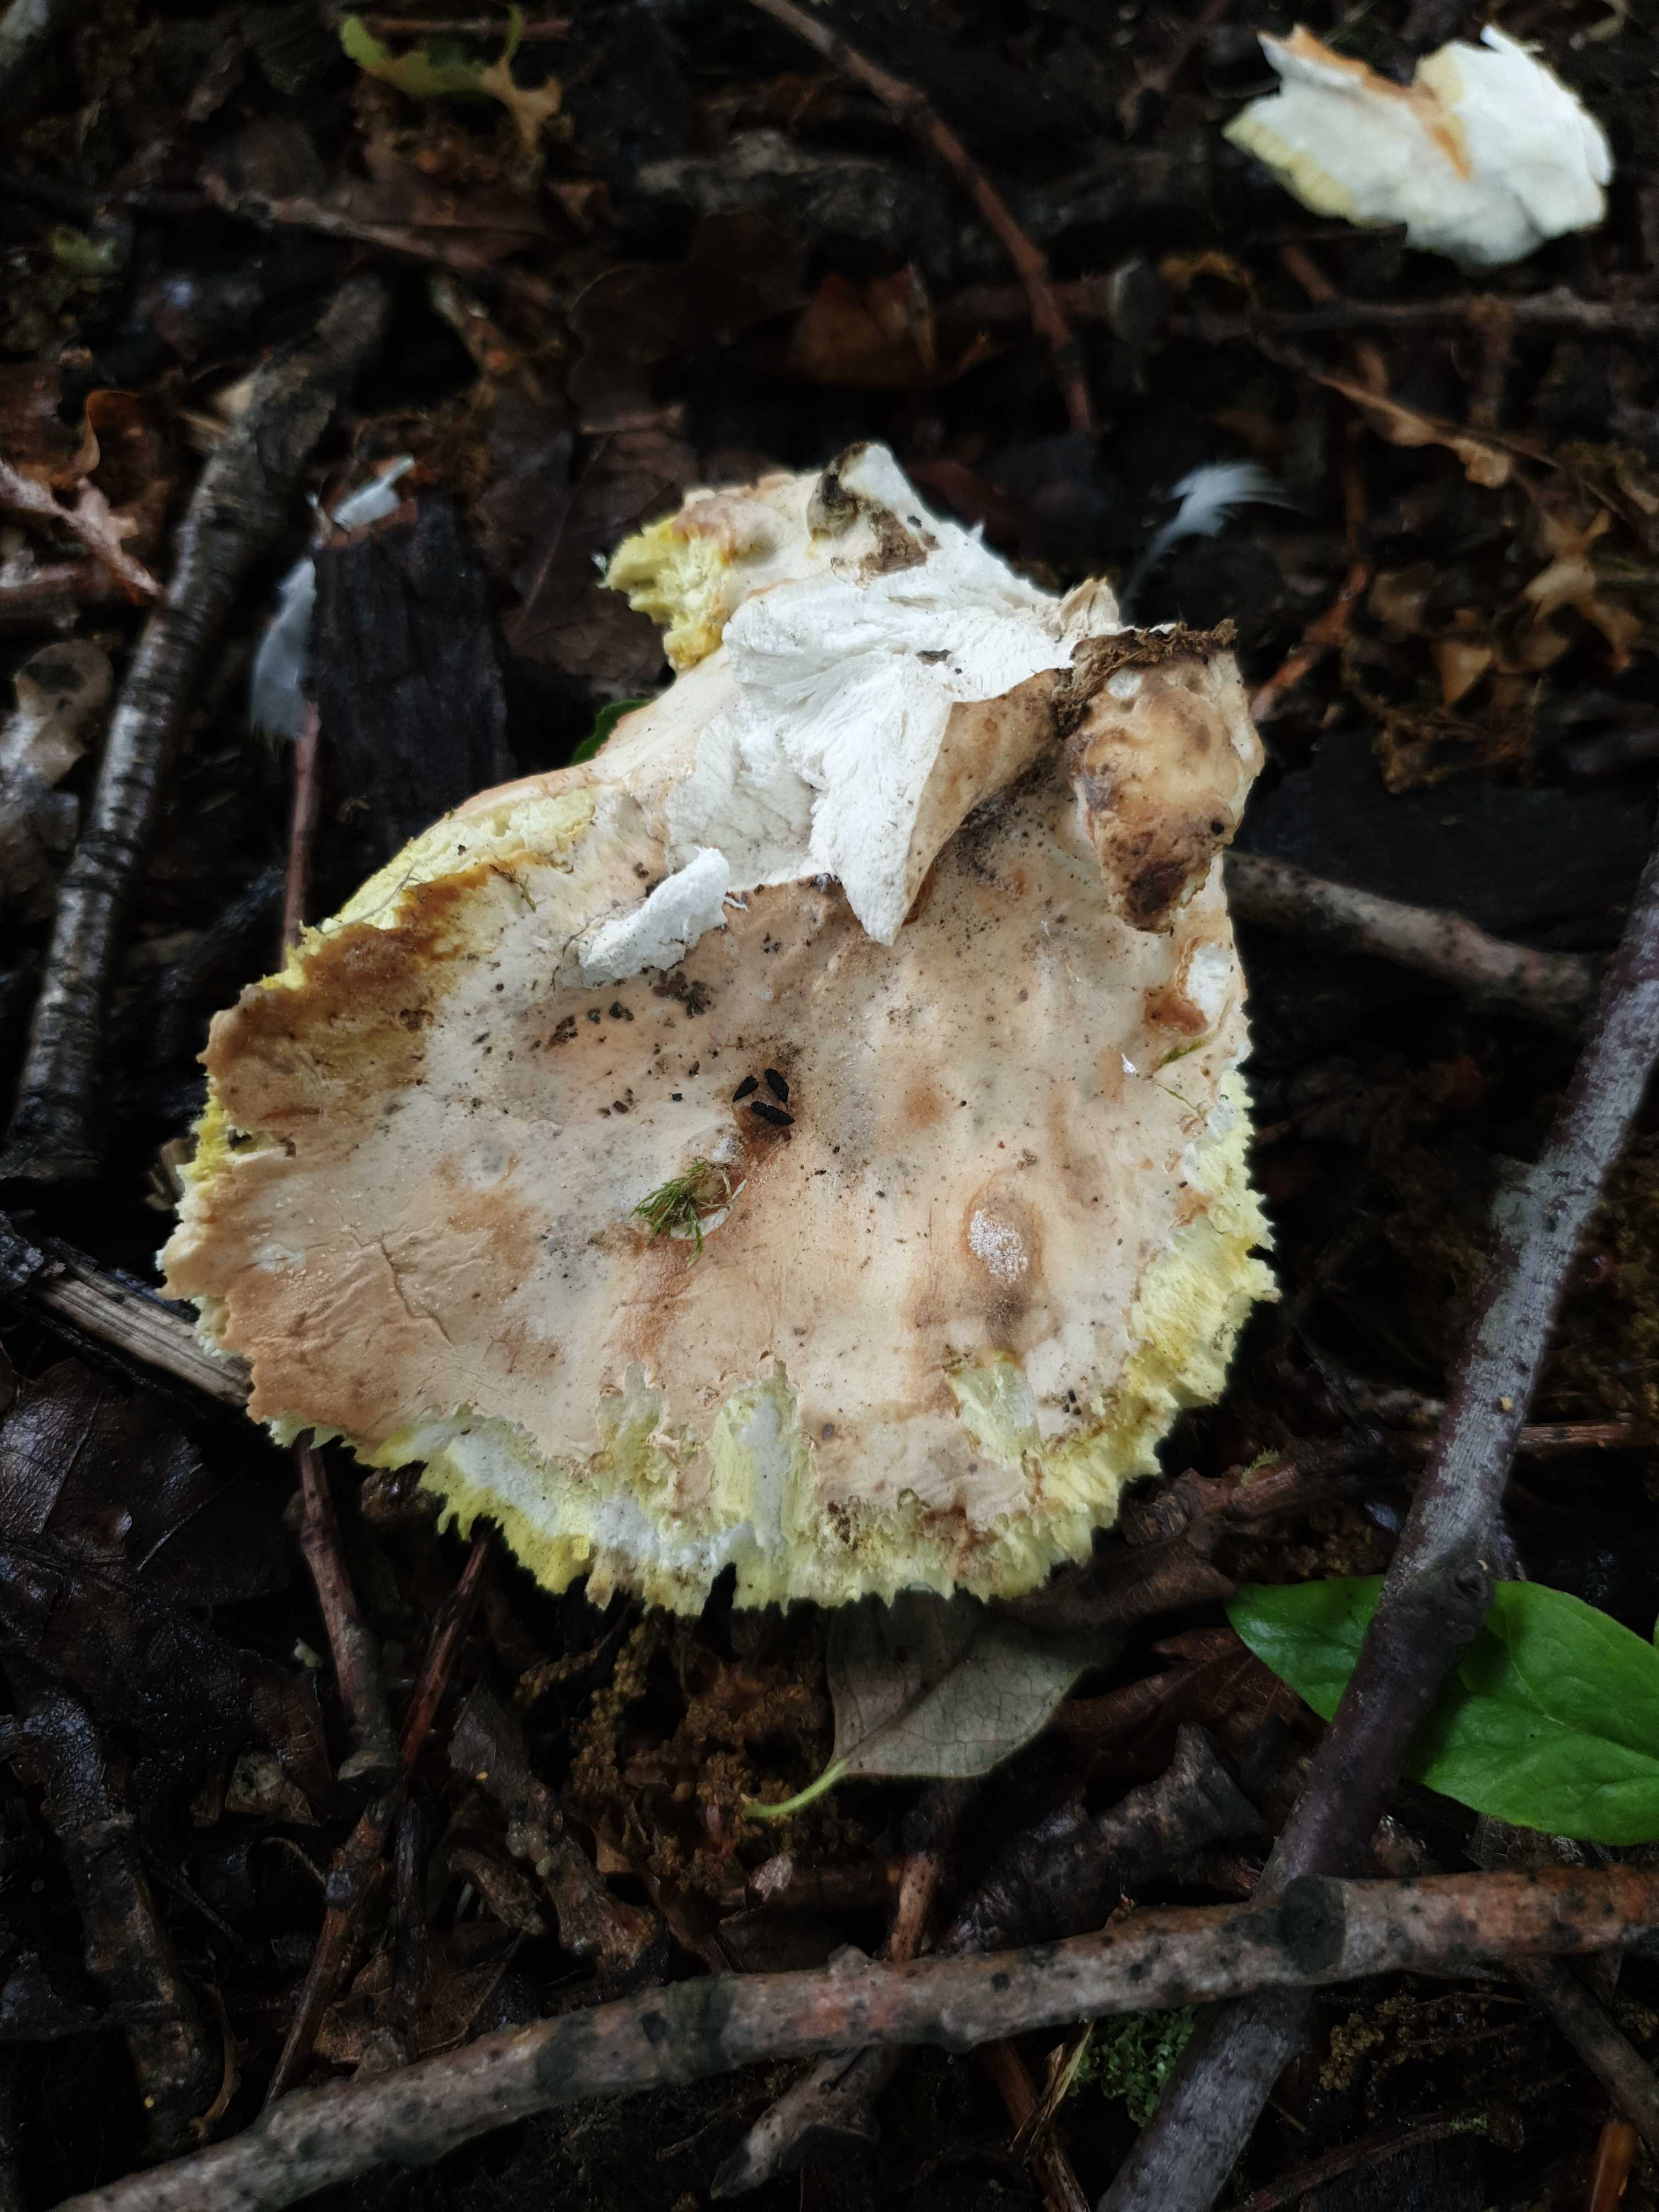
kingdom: Fungi
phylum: Basidiomycota
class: Agaricomycetes
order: Polyporales
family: Laetiporaceae
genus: Laetiporus
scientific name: Laetiporus sulphureus
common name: svovlporesvamp
